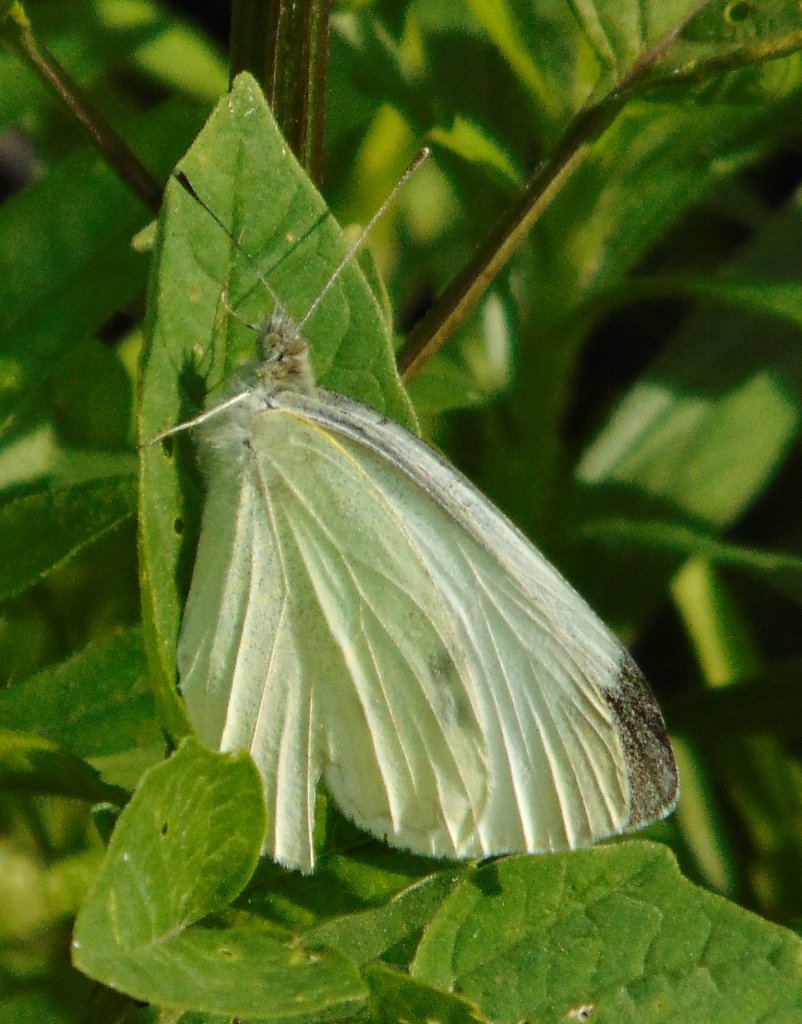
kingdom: Animalia
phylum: Arthropoda
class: Insecta
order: Lepidoptera
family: Pieridae
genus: Pieris
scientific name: Pieris rapae
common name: Cabbage White
